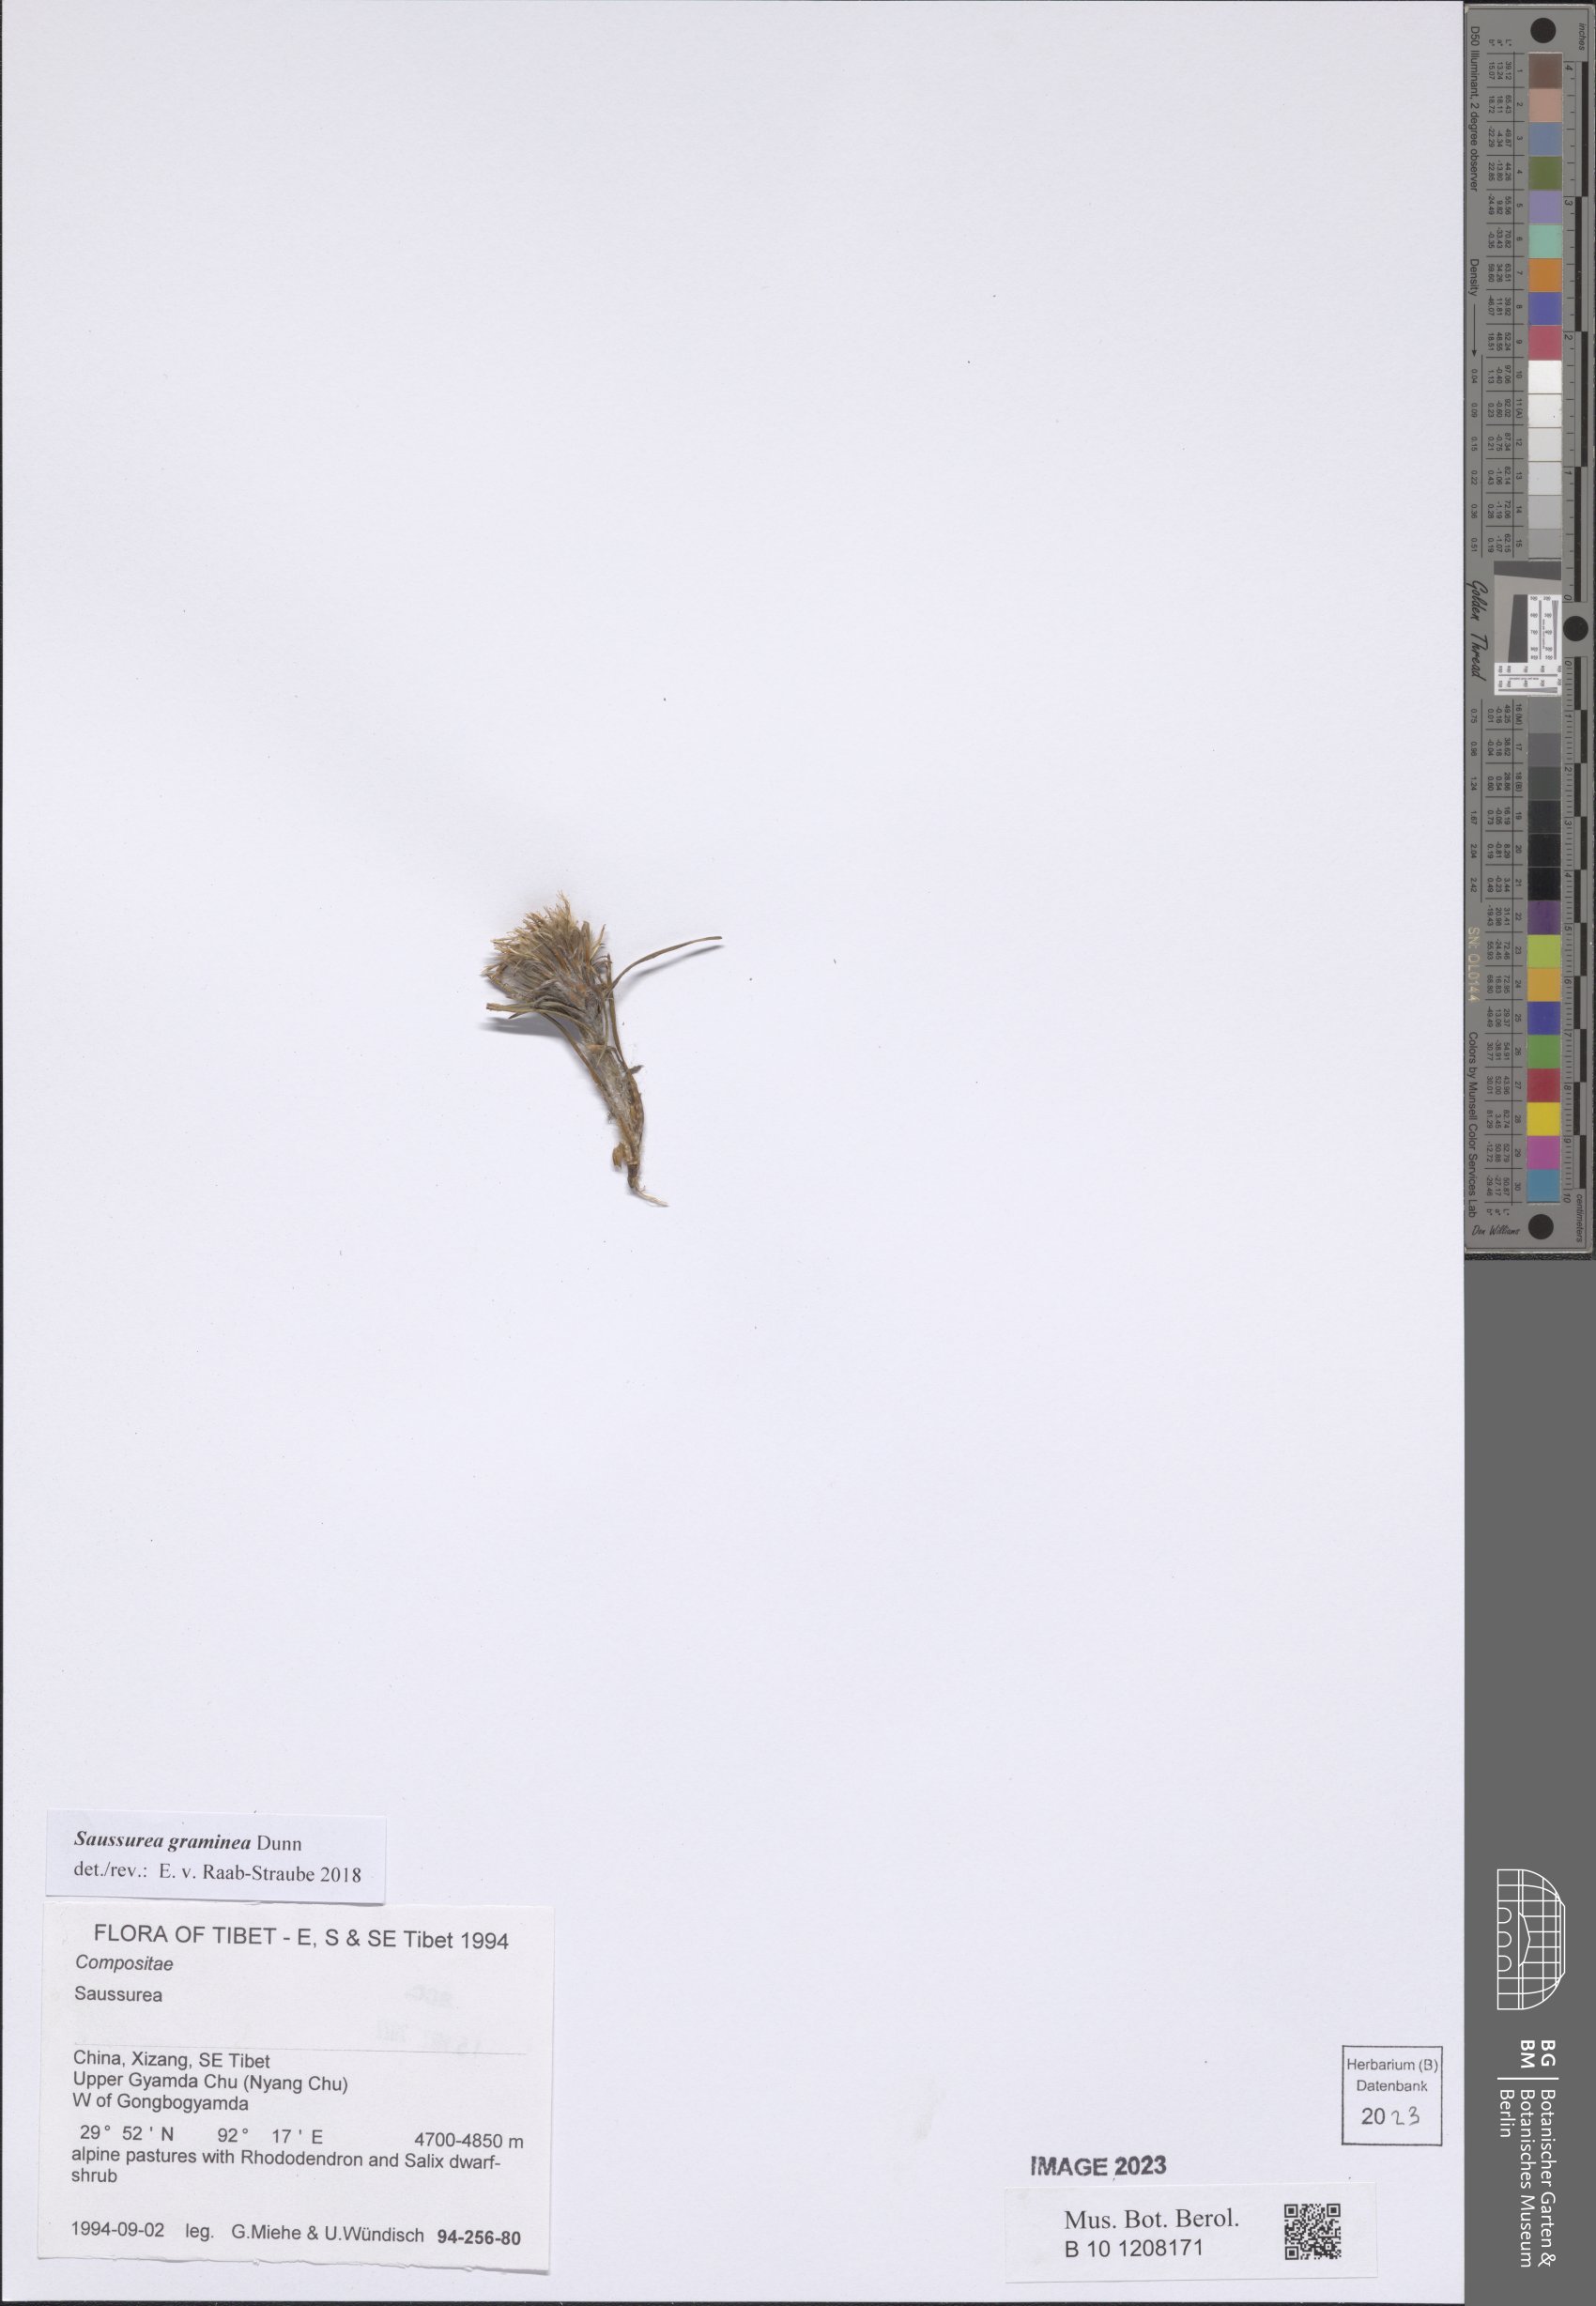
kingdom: Plantae
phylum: Tracheophyta
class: Magnoliopsida
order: Asterales
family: Asteraceae
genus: Saussurea
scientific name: Saussurea graminea
